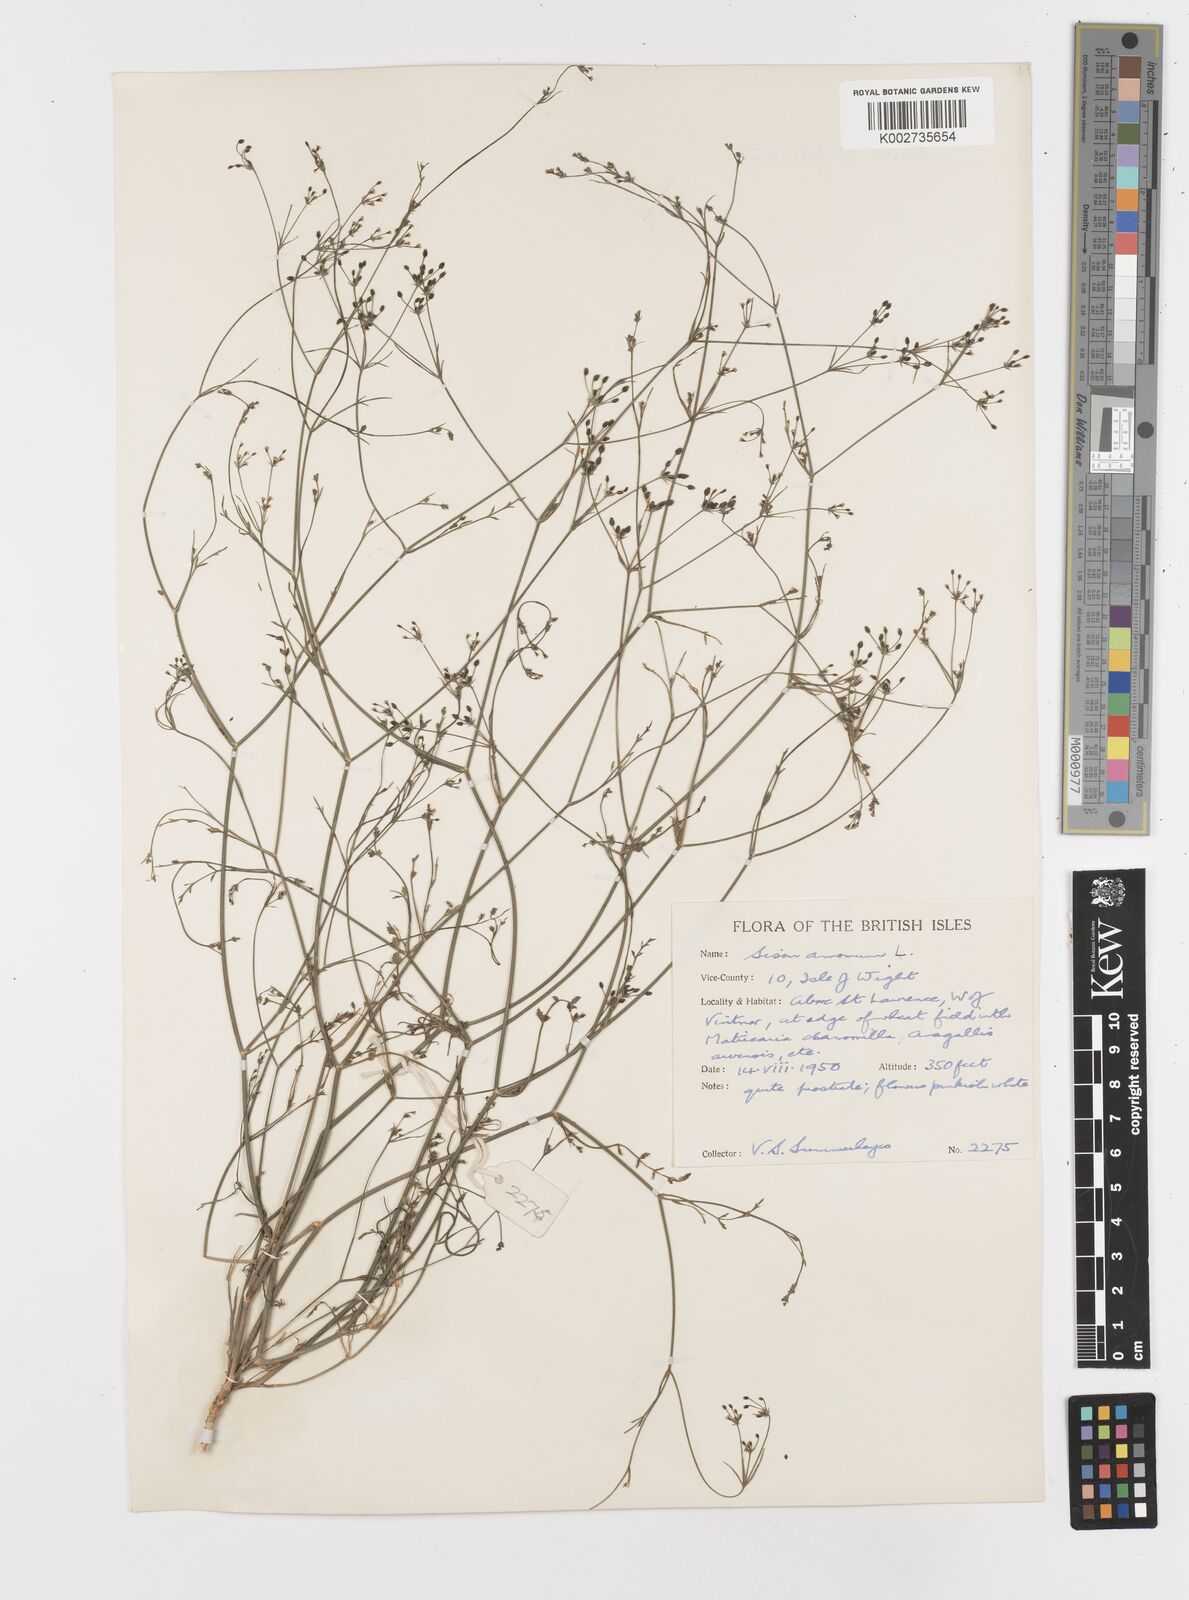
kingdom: Plantae
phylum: Tracheophyta
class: Magnoliopsida
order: Apiales
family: Apiaceae
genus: Sison
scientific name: Sison amomum
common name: Stone-parsley
